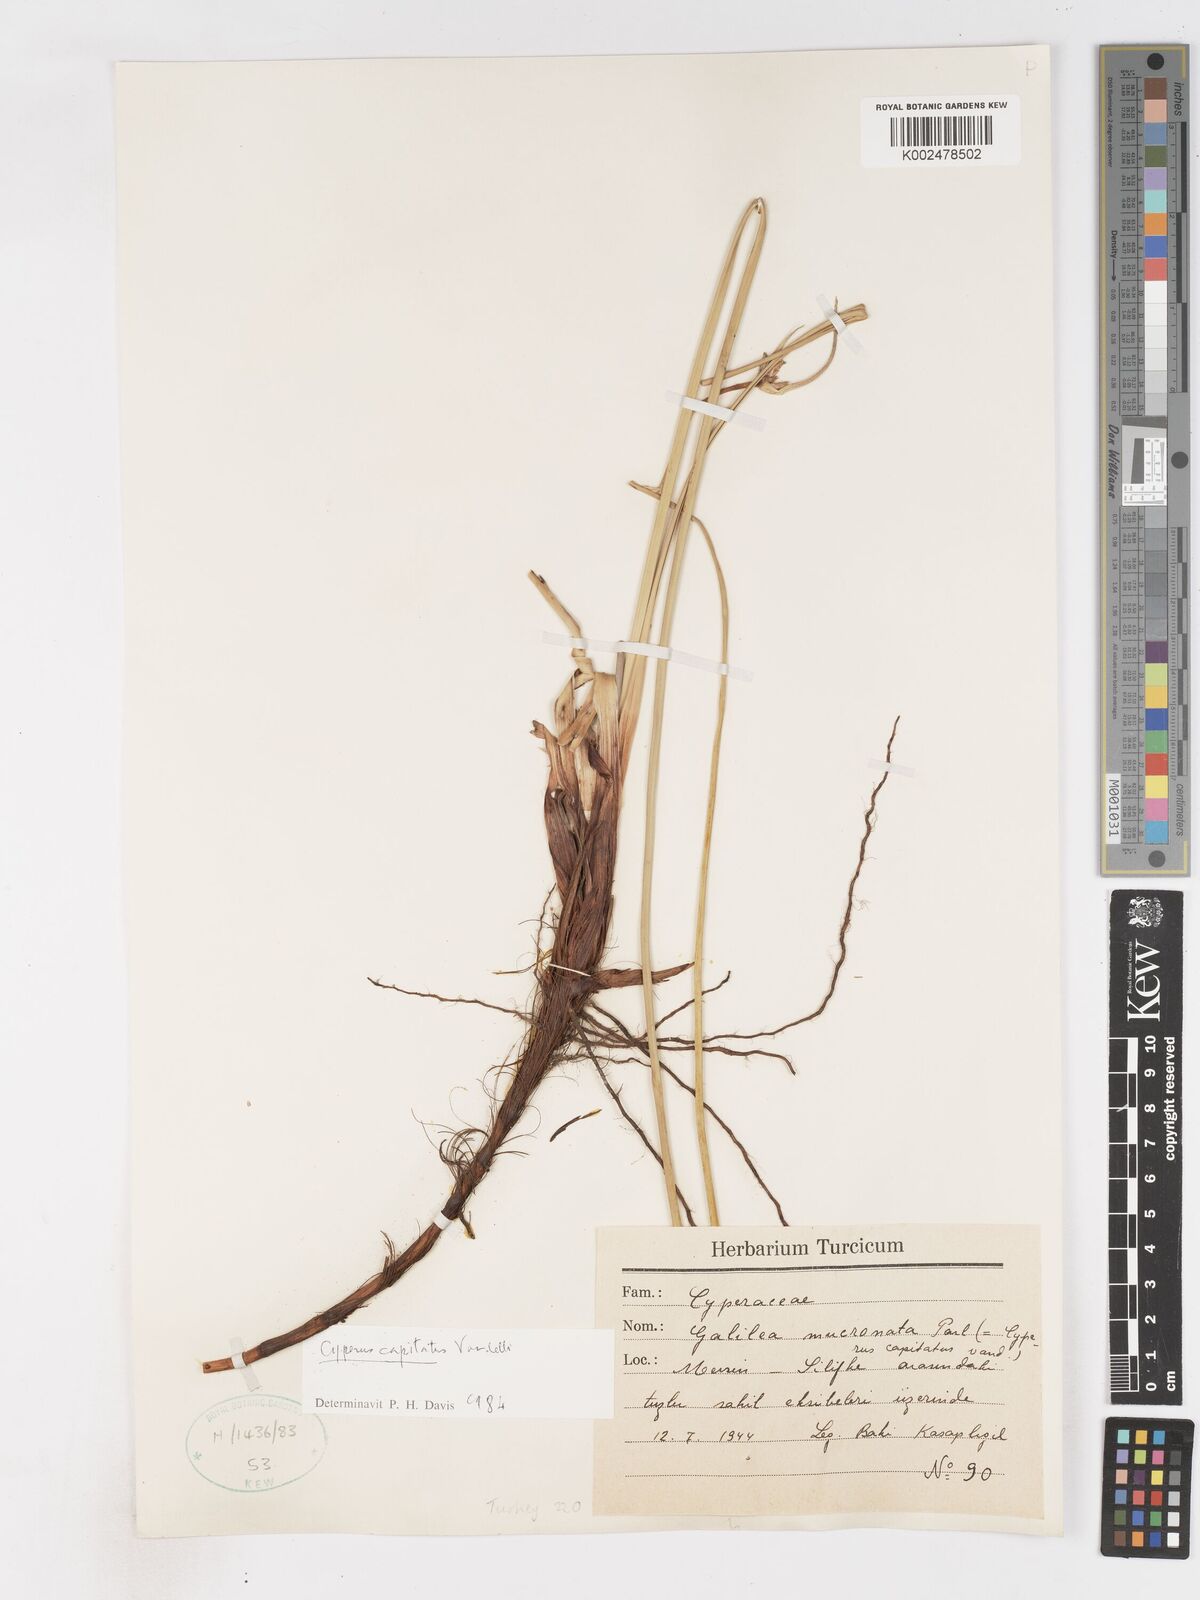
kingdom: Plantae
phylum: Tracheophyta
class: Liliopsida
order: Poales
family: Cyperaceae
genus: Cyperus
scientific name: Cyperus capitatus
